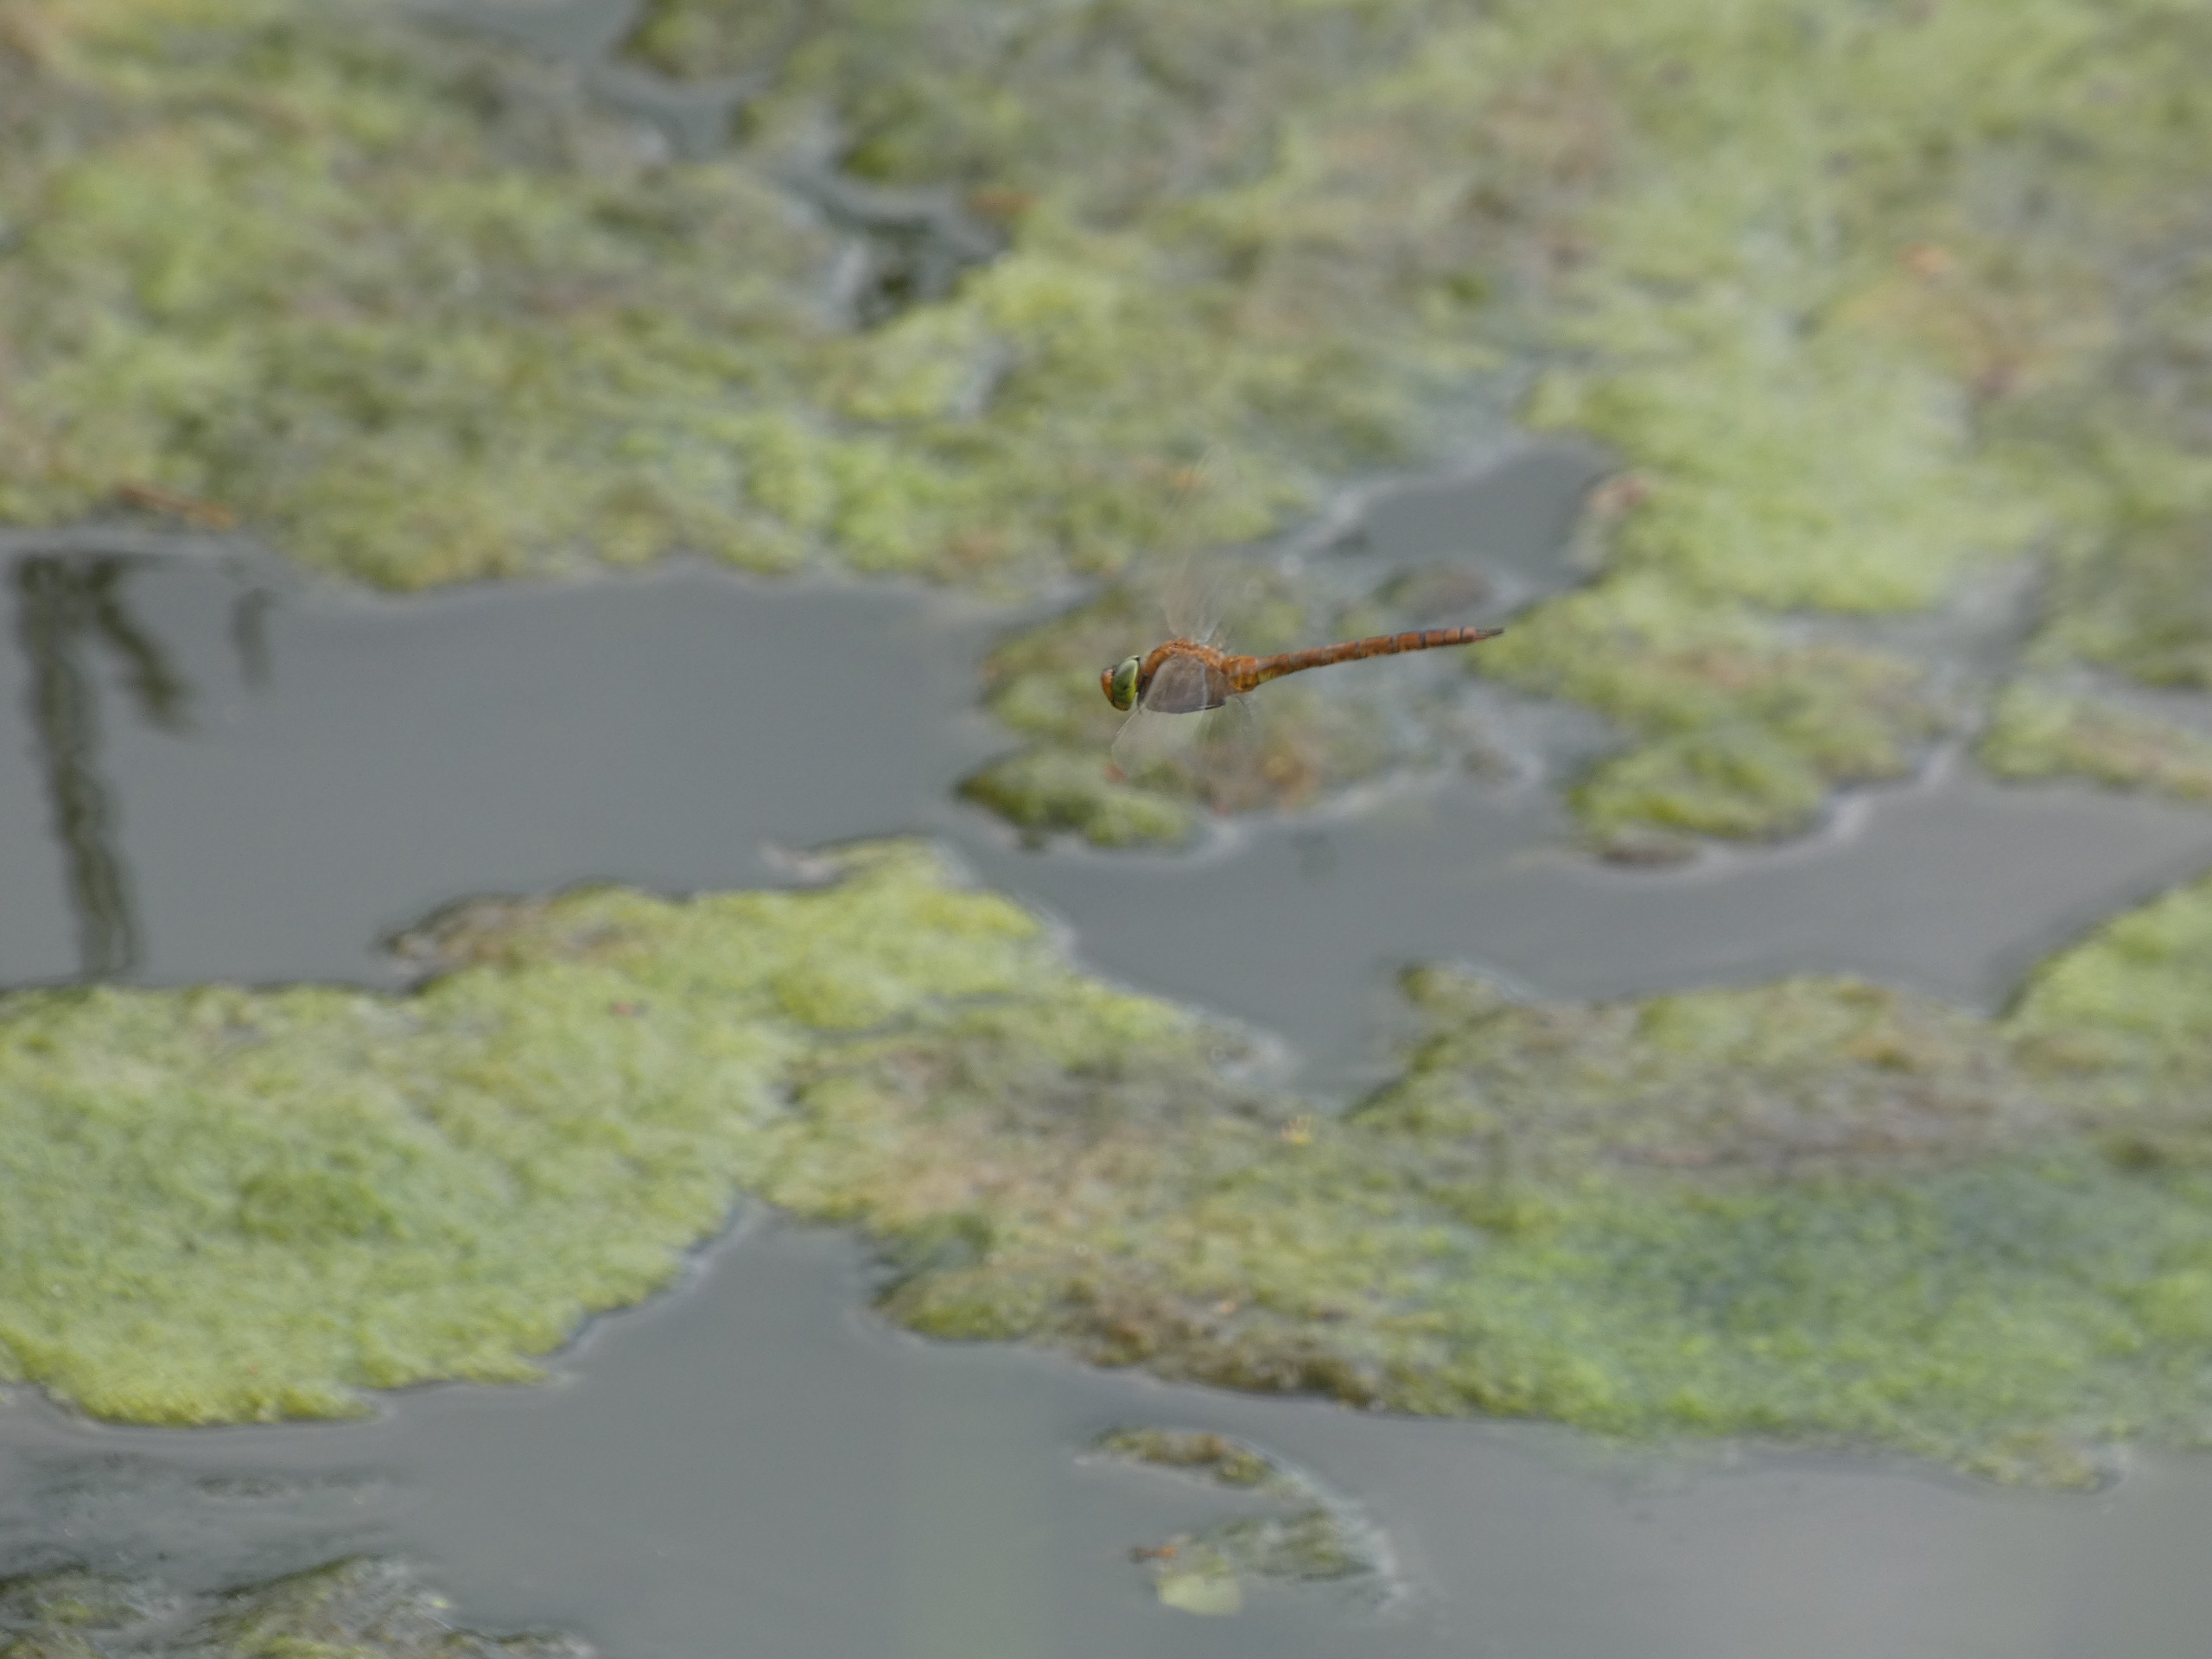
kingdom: Animalia
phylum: Arthropoda
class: Insecta
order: Odonata
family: Aeshnidae
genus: Aeshna
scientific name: Aeshna isoceles
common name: Kileplet-mosaikguldsmed
